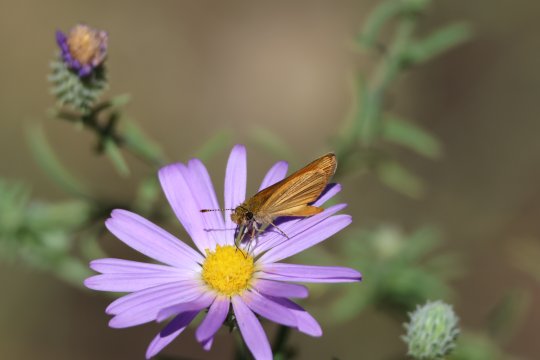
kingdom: Animalia
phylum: Arthropoda
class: Insecta
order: Lepidoptera
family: Hesperiidae
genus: Ancyloxypha
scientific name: Ancyloxypha arene
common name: Tropical Least Skipper
